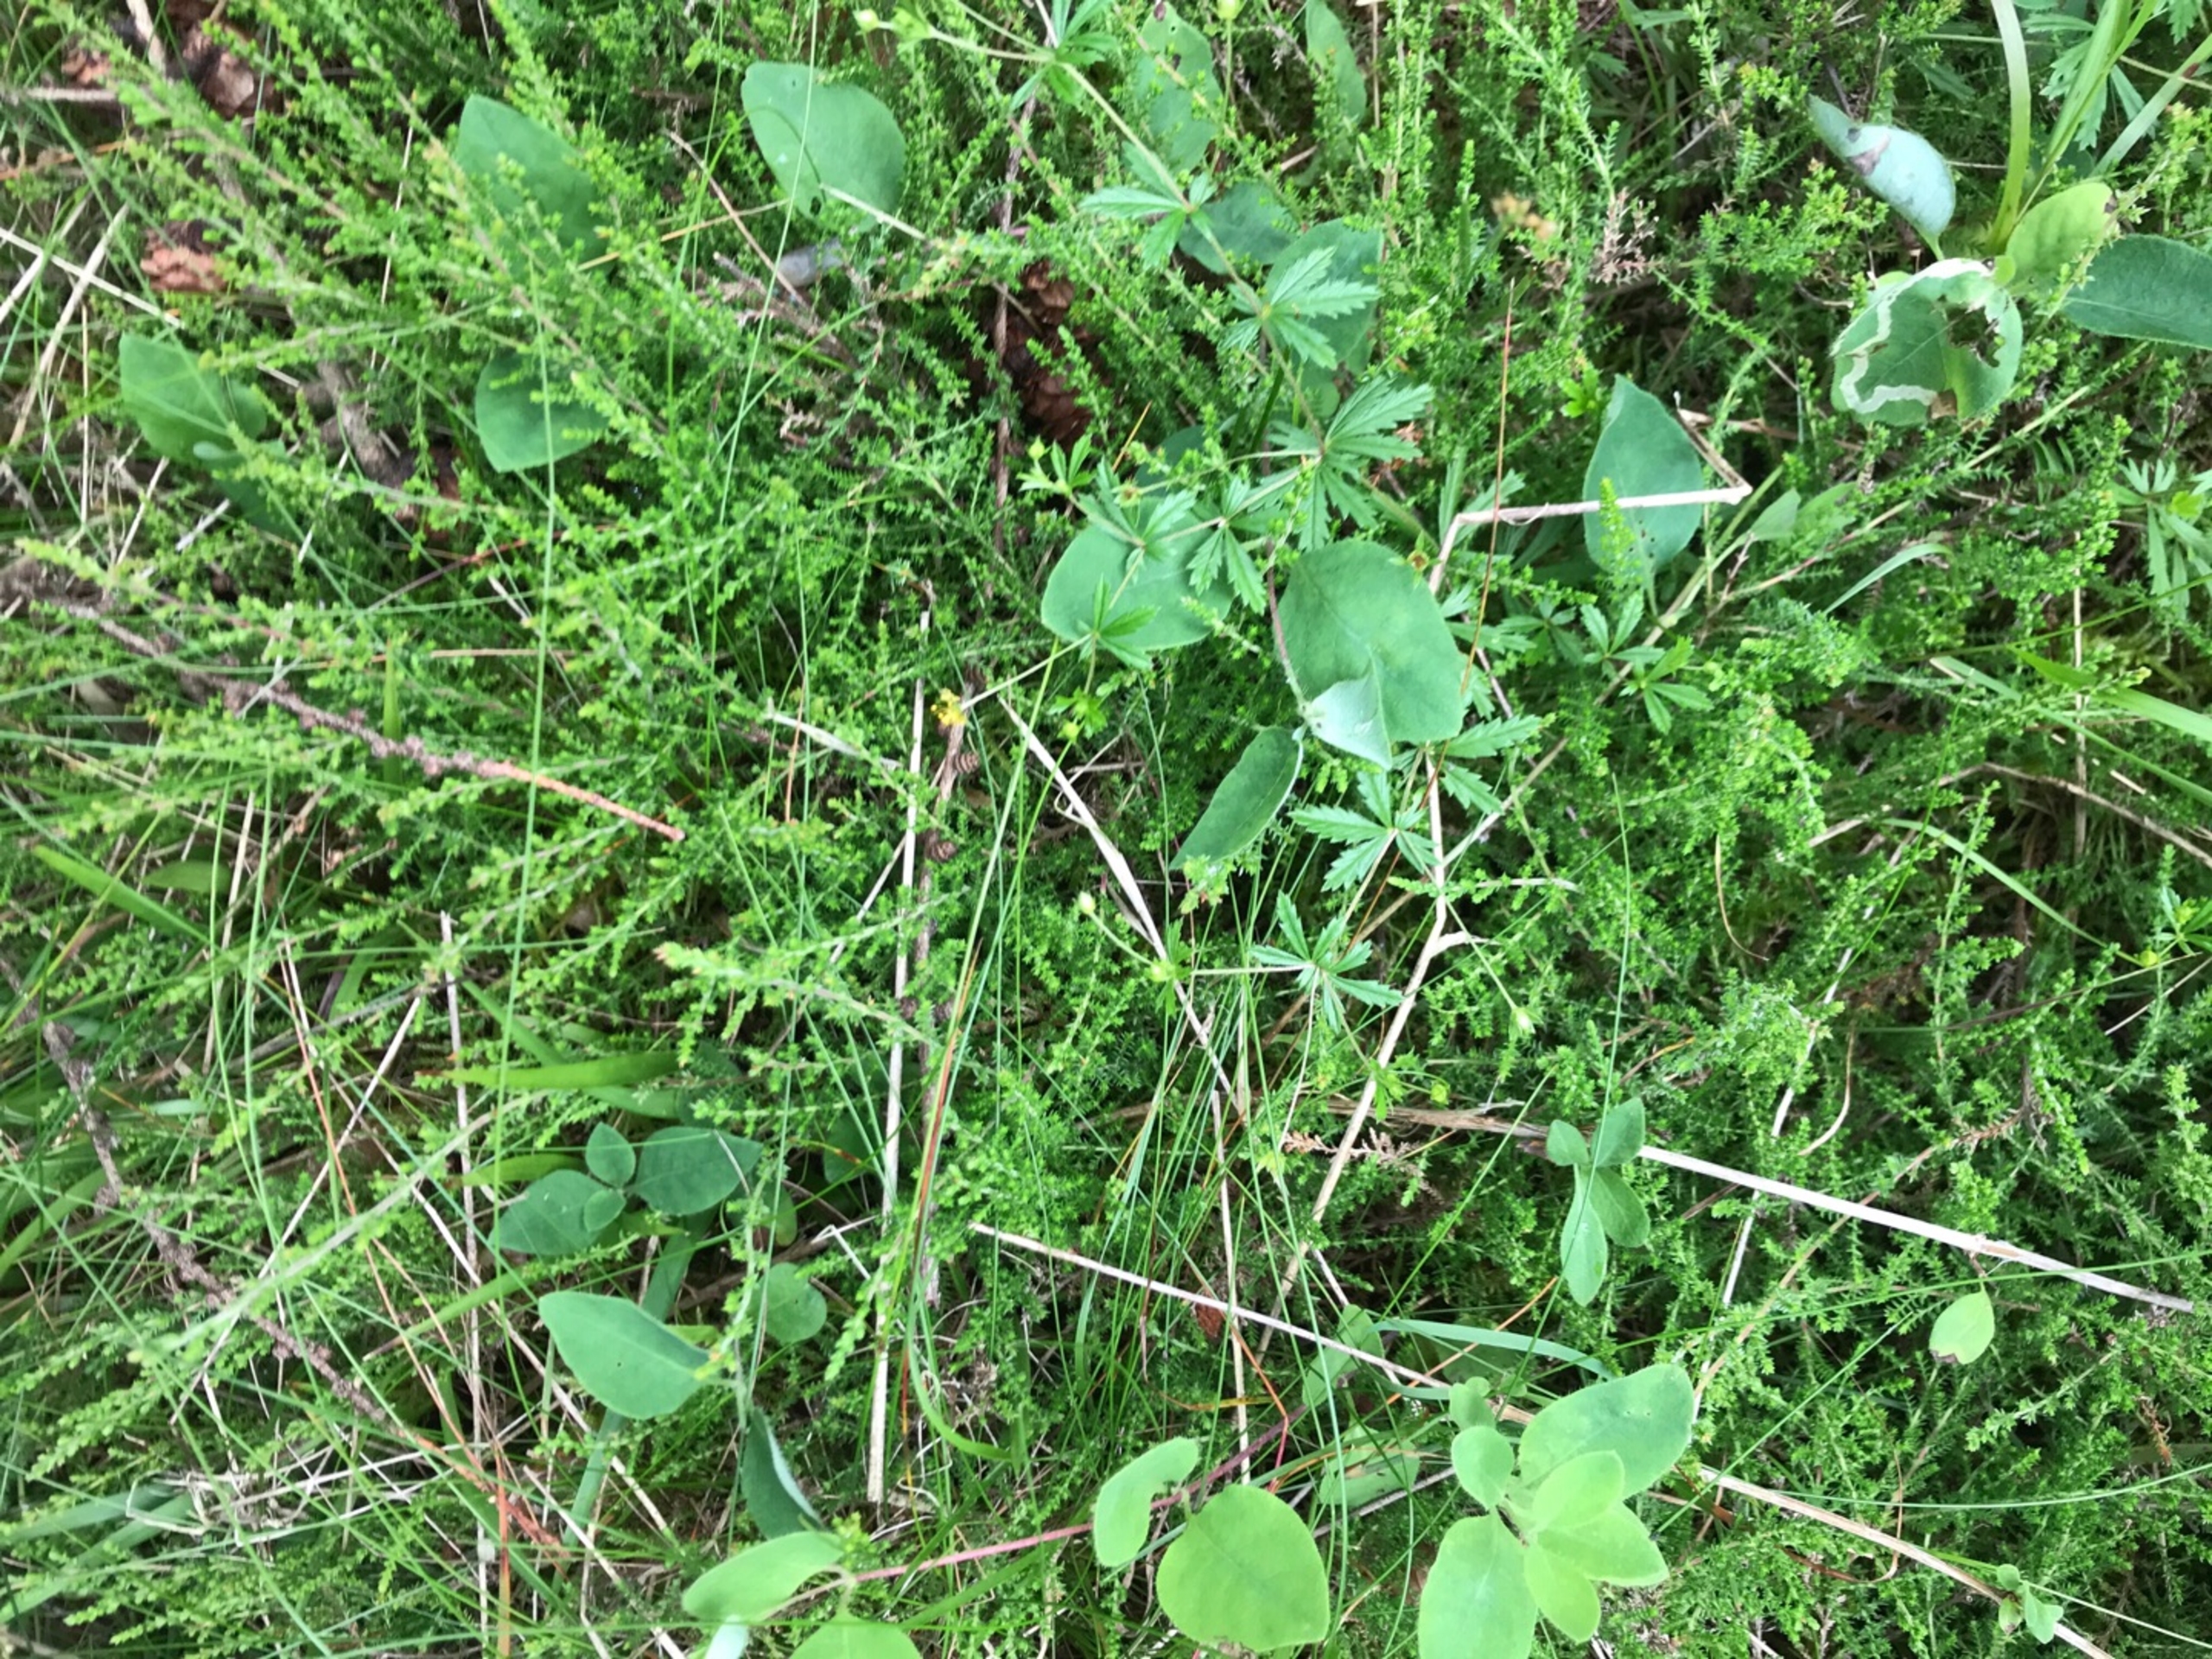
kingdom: Plantae
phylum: Tracheophyta
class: Magnoliopsida
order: Ericales
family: Ericaceae
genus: Calluna
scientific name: Calluna vulgaris
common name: Hedelyng
